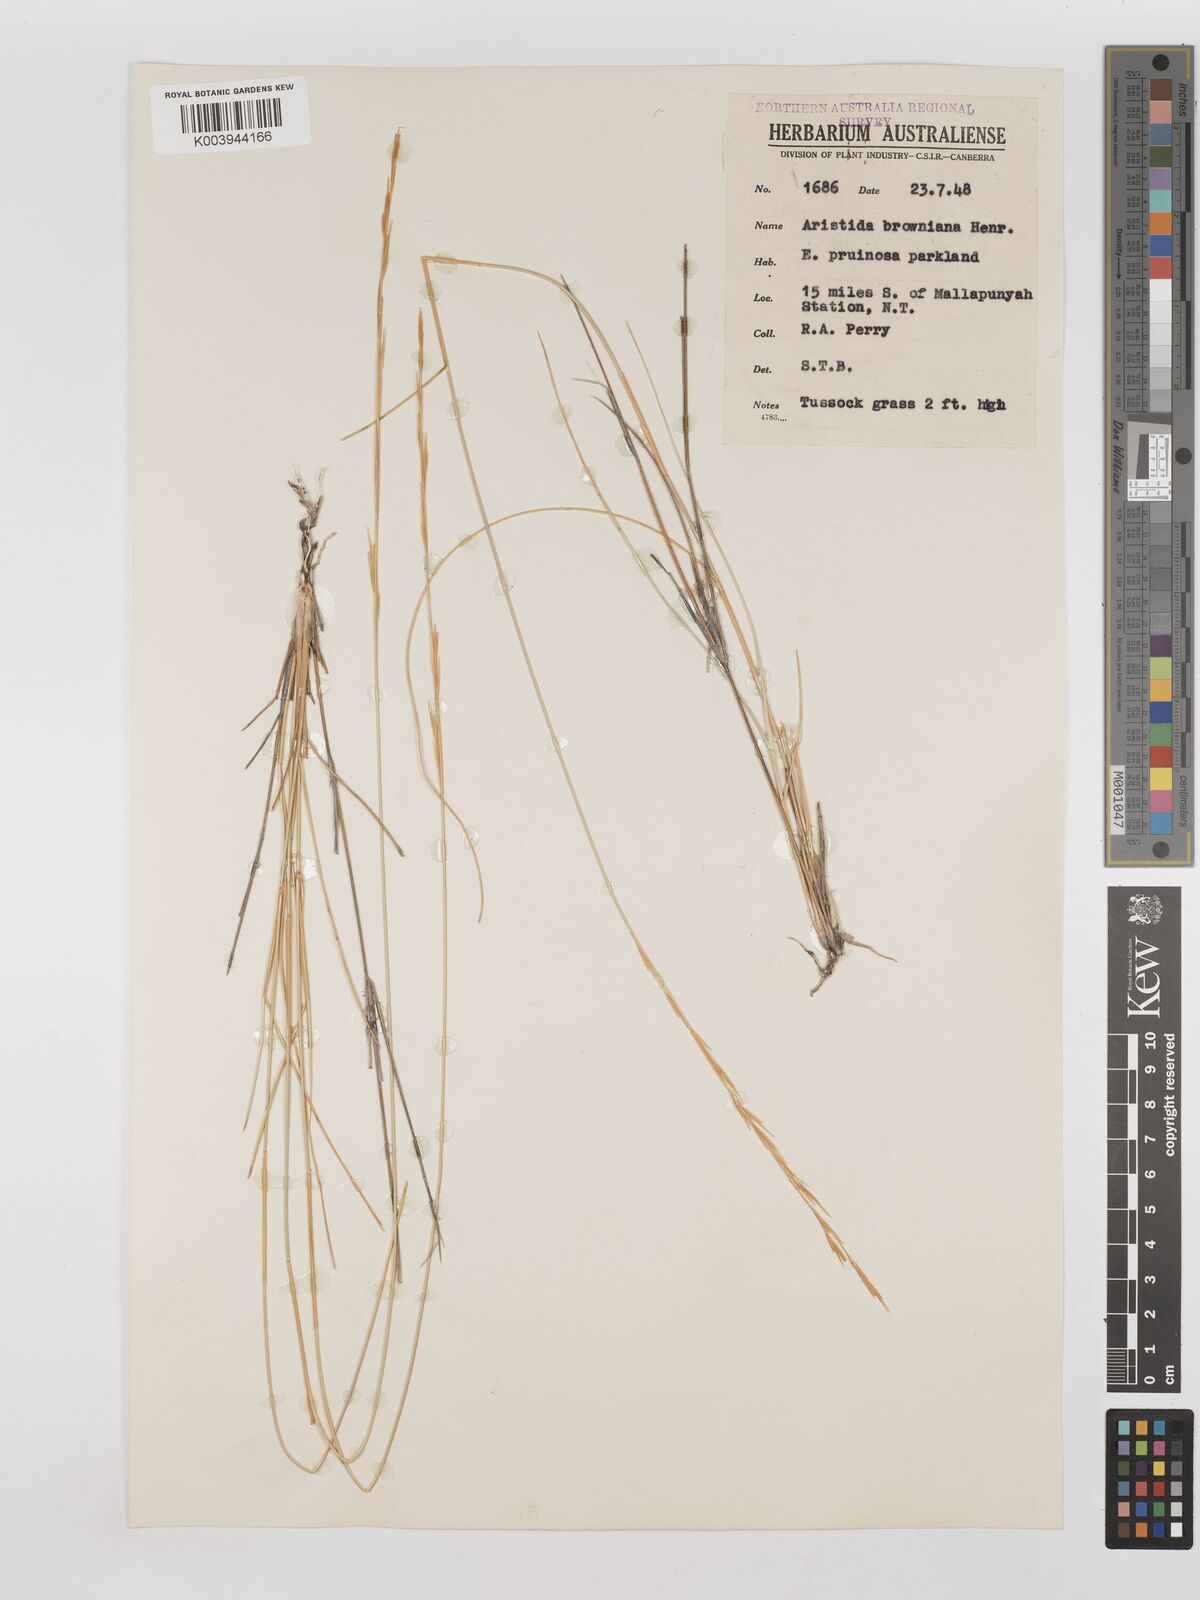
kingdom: Plantae
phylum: Tracheophyta
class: Liliopsida
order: Poales
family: Poaceae
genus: Aristida
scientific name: Aristida holathera
